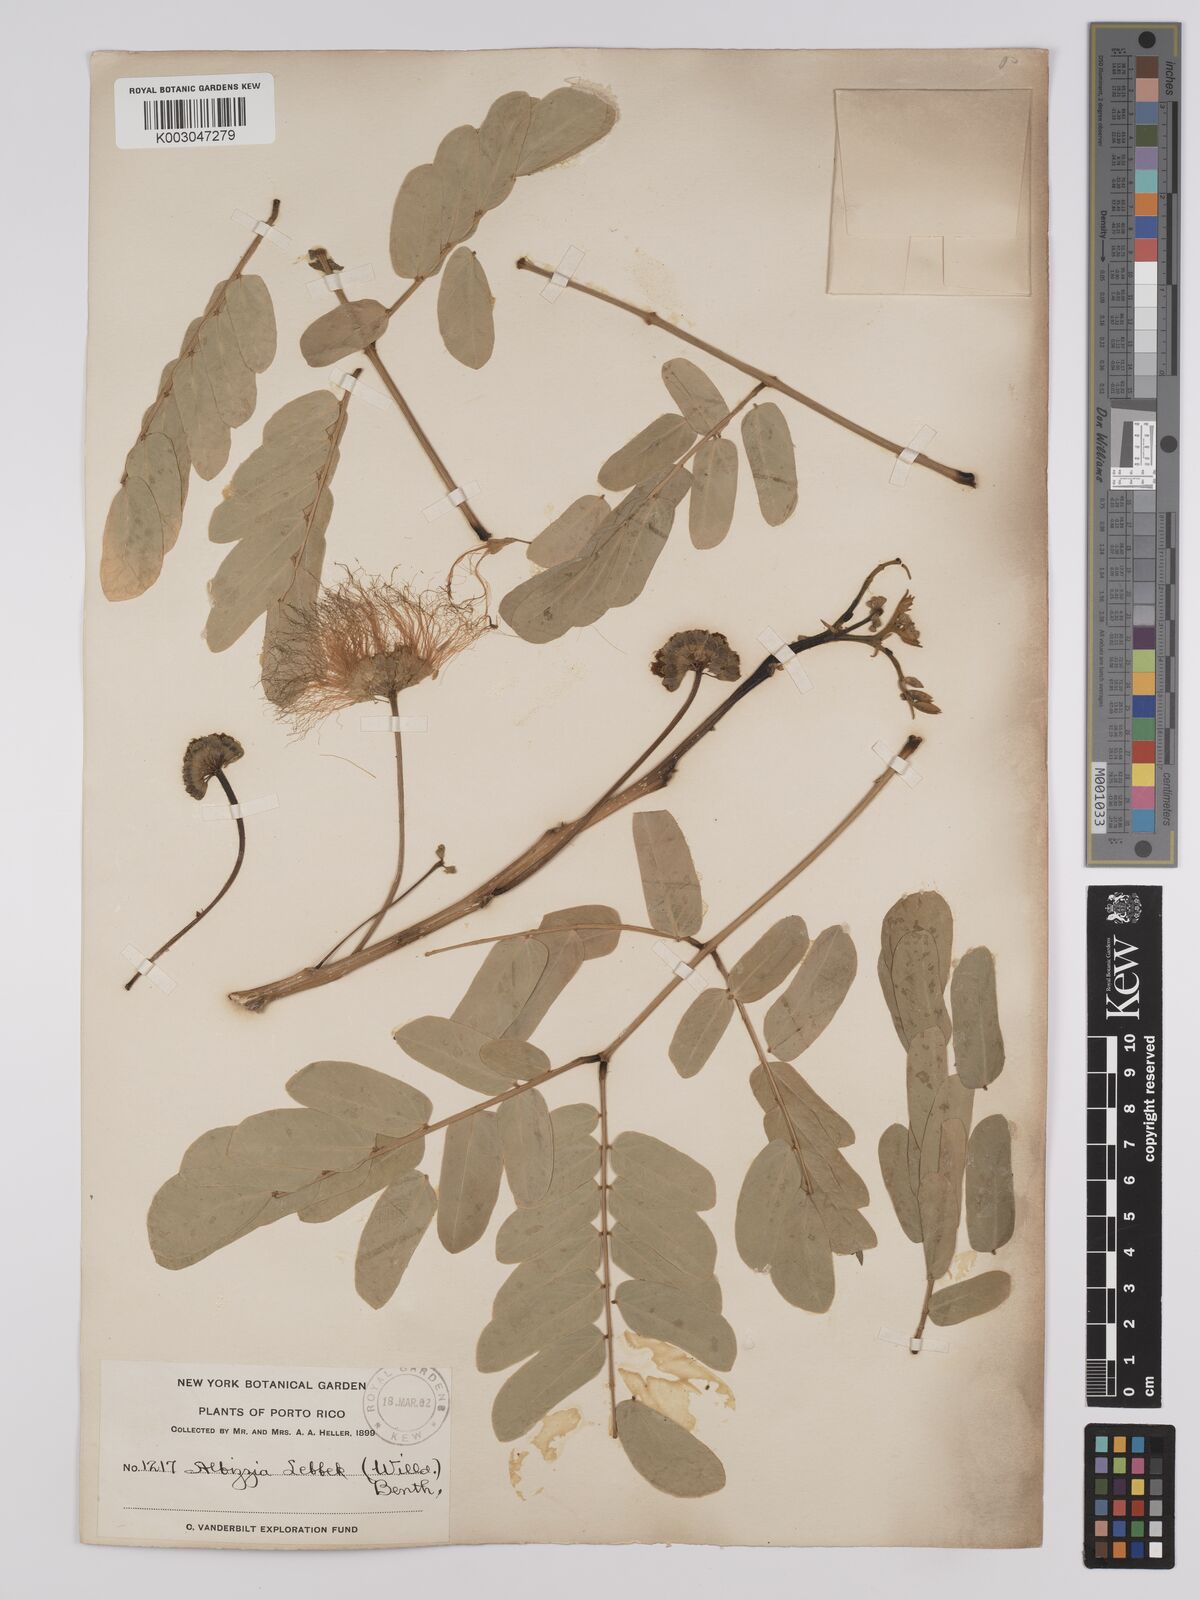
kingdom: Plantae
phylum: Tracheophyta
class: Magnoliopsida
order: Fabales
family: Fabaceae
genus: Albizia
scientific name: Albizia lebbeck
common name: Woman's tongue
